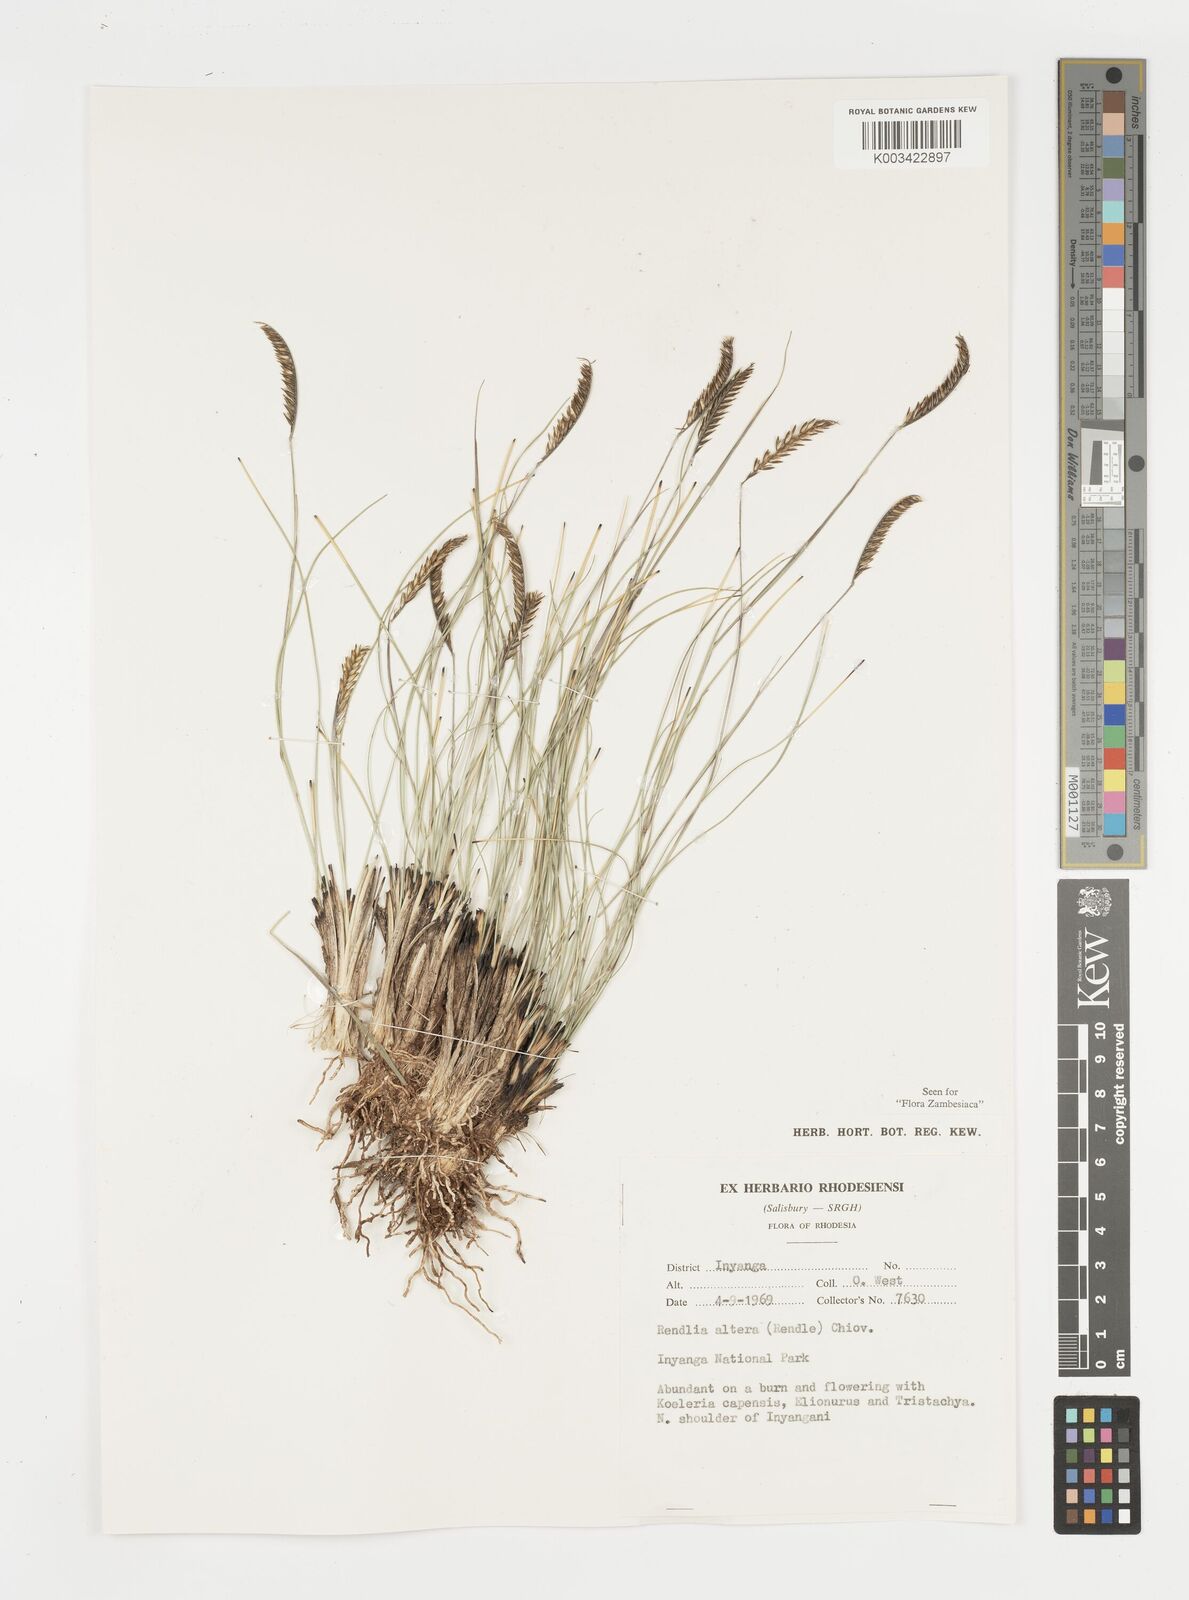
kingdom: Plantae
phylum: Tracheophyta
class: Liliopsida
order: Poales
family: Poaceae
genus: Microchloa
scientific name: Microchloa altera
